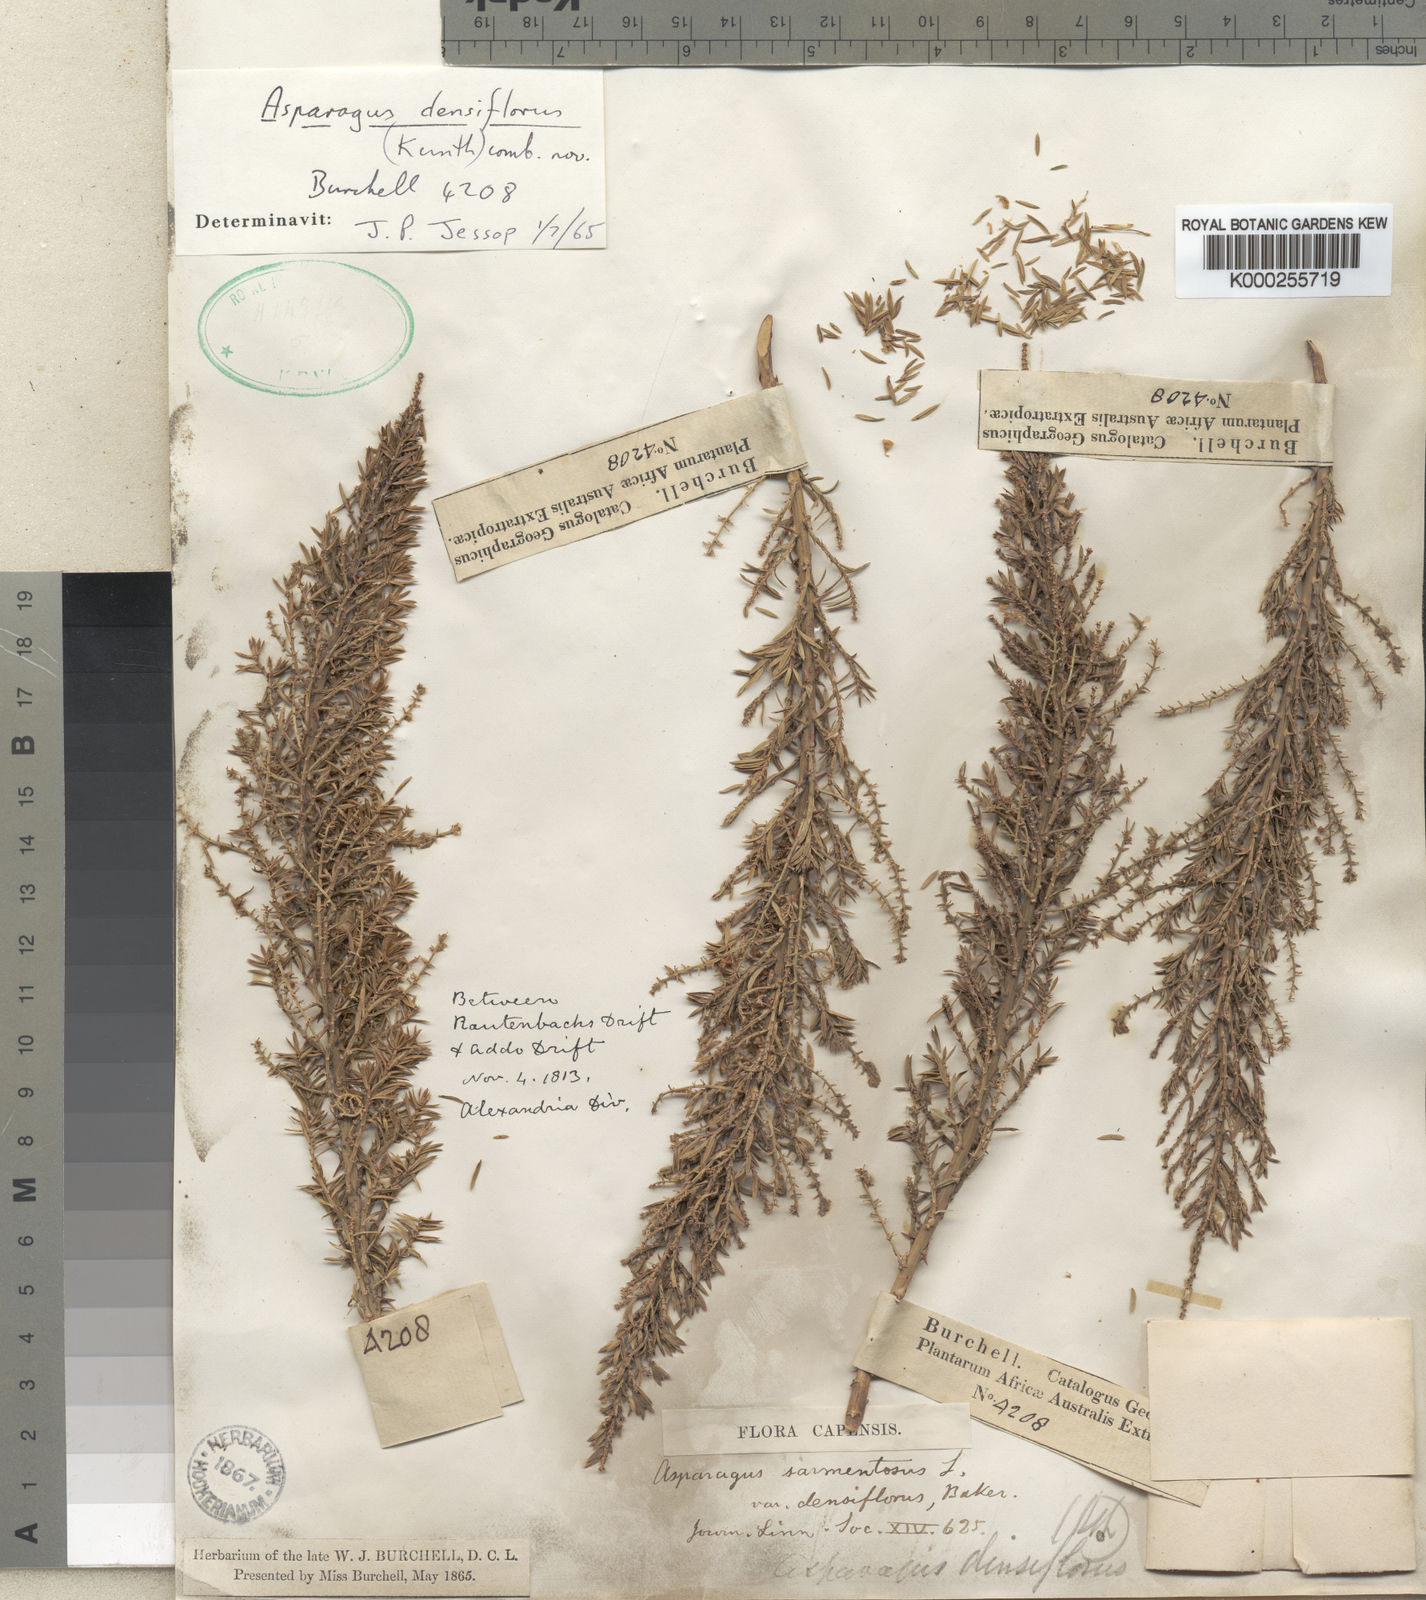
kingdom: Plantae
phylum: Tracheophyta
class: Liliopsida
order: Asparagales
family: Asparagaceae
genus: Asparagus
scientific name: Asparagus densiflorus
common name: Asparagus fern
